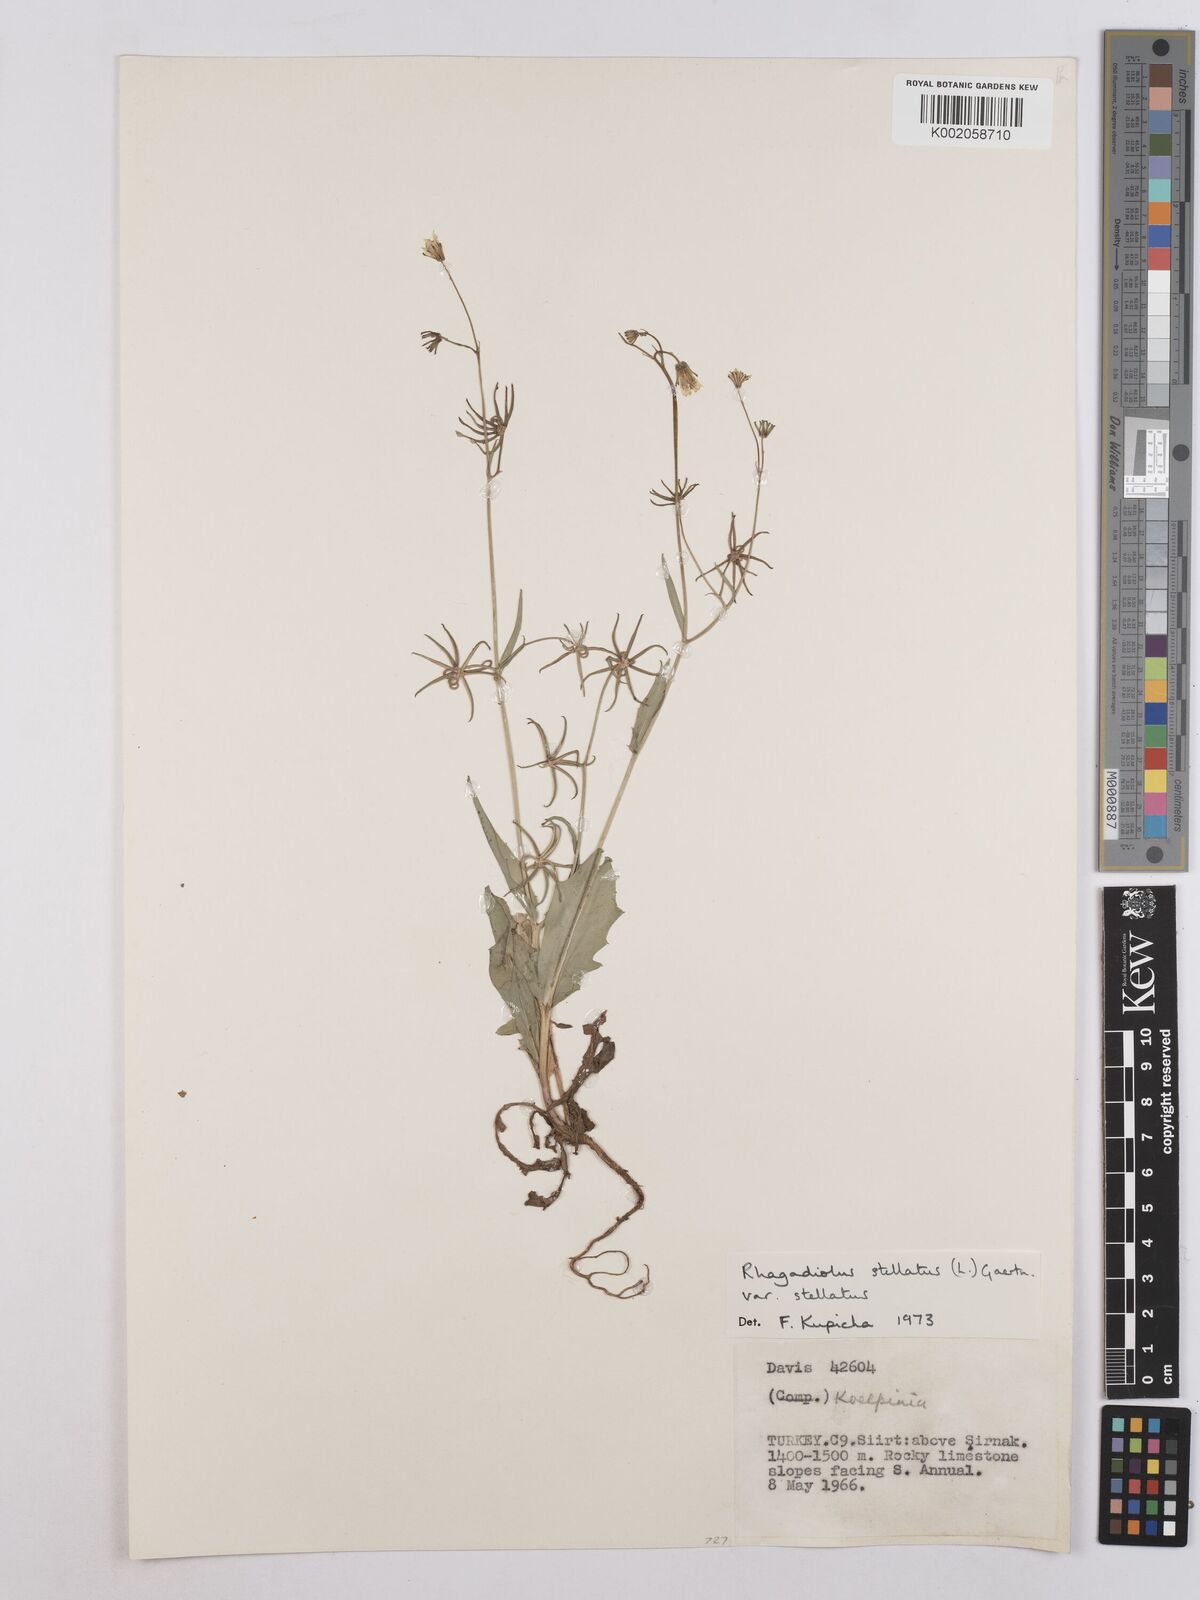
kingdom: Plantae
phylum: Tracheophyta
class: Magnoliopsida
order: Asterales
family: Asteraceae
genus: Rhagadiolus
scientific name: Rhagadiolus stellatus
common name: Star hawkbit
